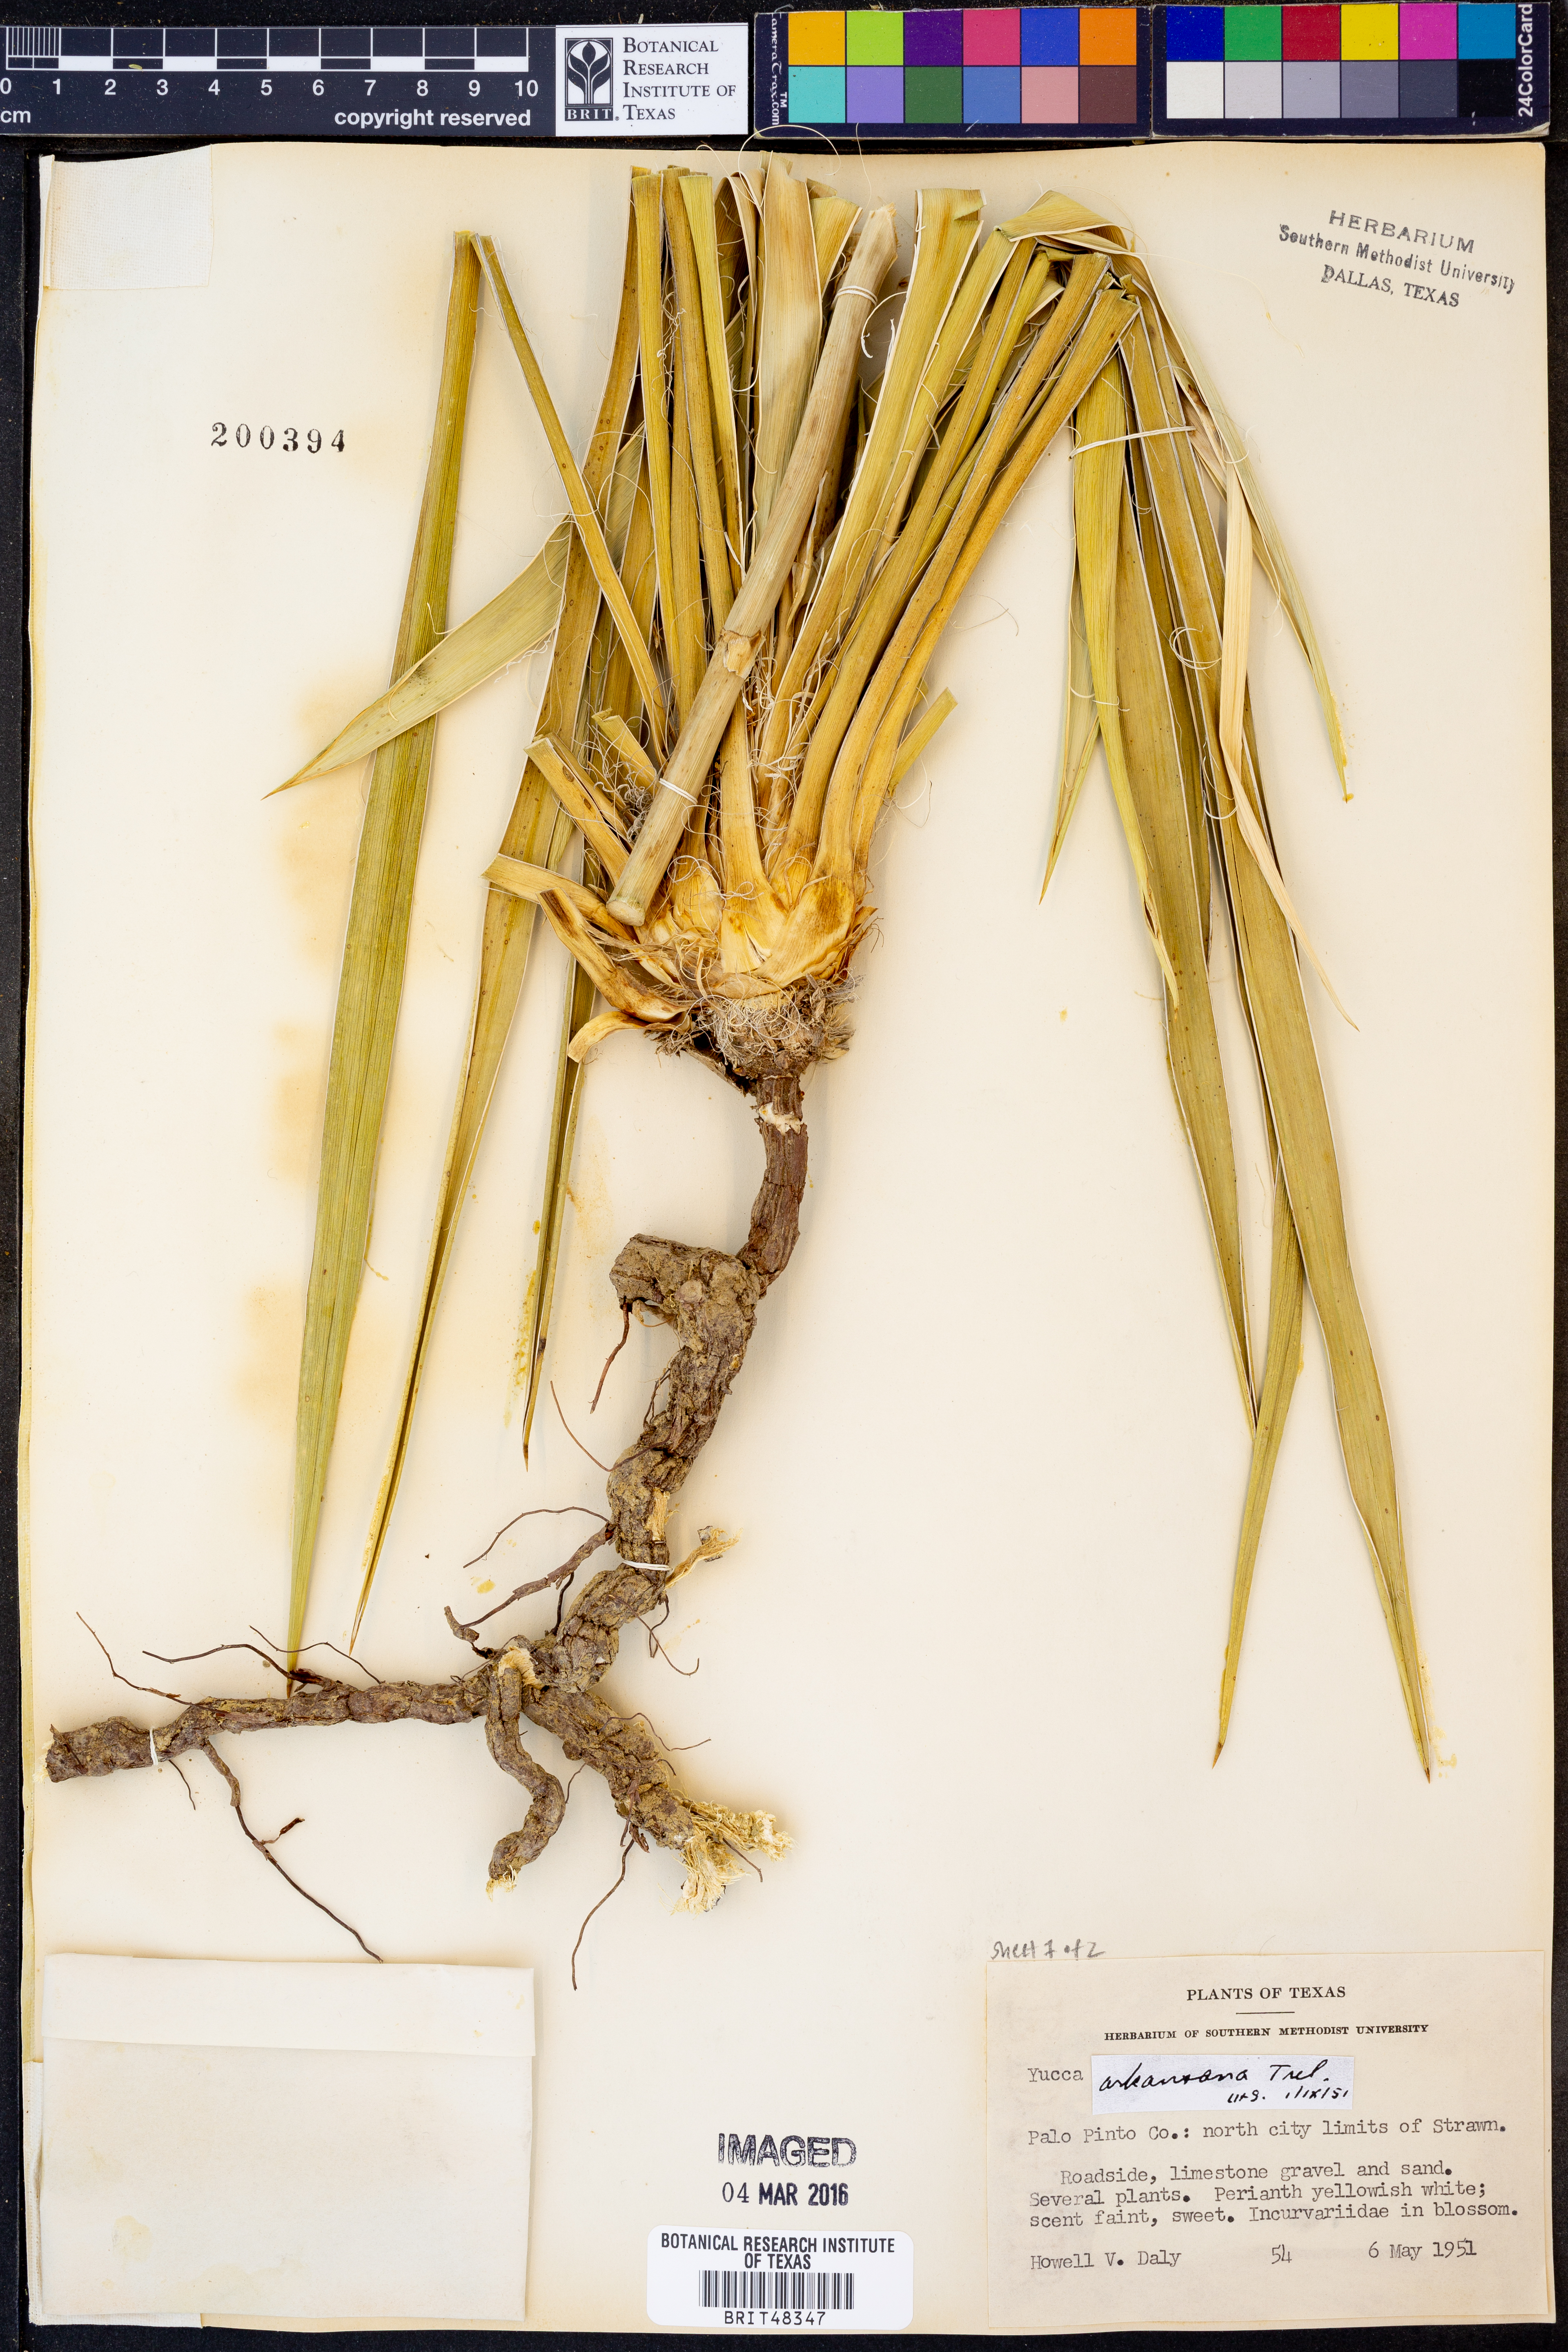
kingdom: Plantae
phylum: Tracheophyta
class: Liliopsida
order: Asparagales
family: Asparagaceae
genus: Yucca
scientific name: Yucca arkansana
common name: Arkansas yucca
